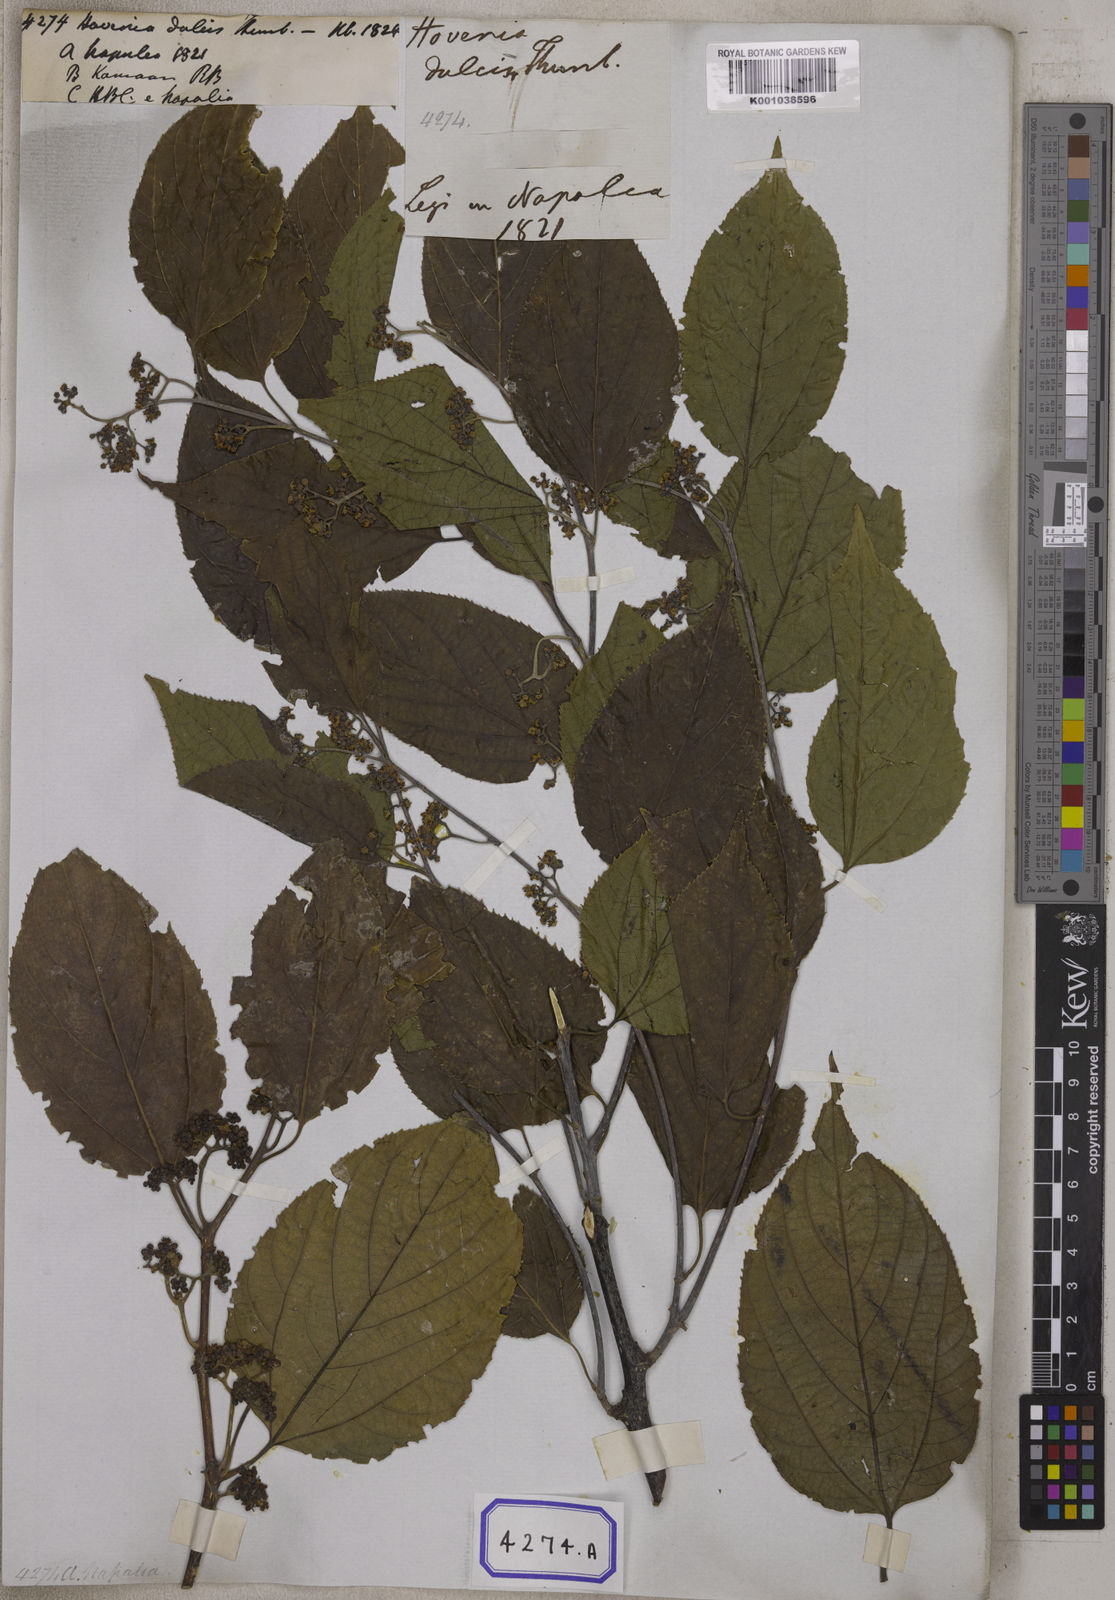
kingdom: Plantae
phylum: Tracheophyta
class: Magnoliopsida
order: Rosales
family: Rhamnaceae
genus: Hovenia
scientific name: Hovenia dulcis
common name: Japanese raisintree
